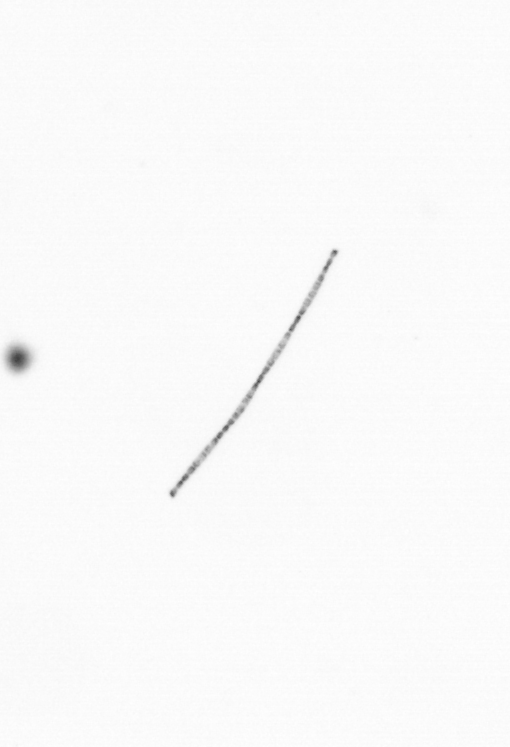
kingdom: Chromista
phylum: Ochrophyta
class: Bacillariophyceae
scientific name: Bacillariophyceae
